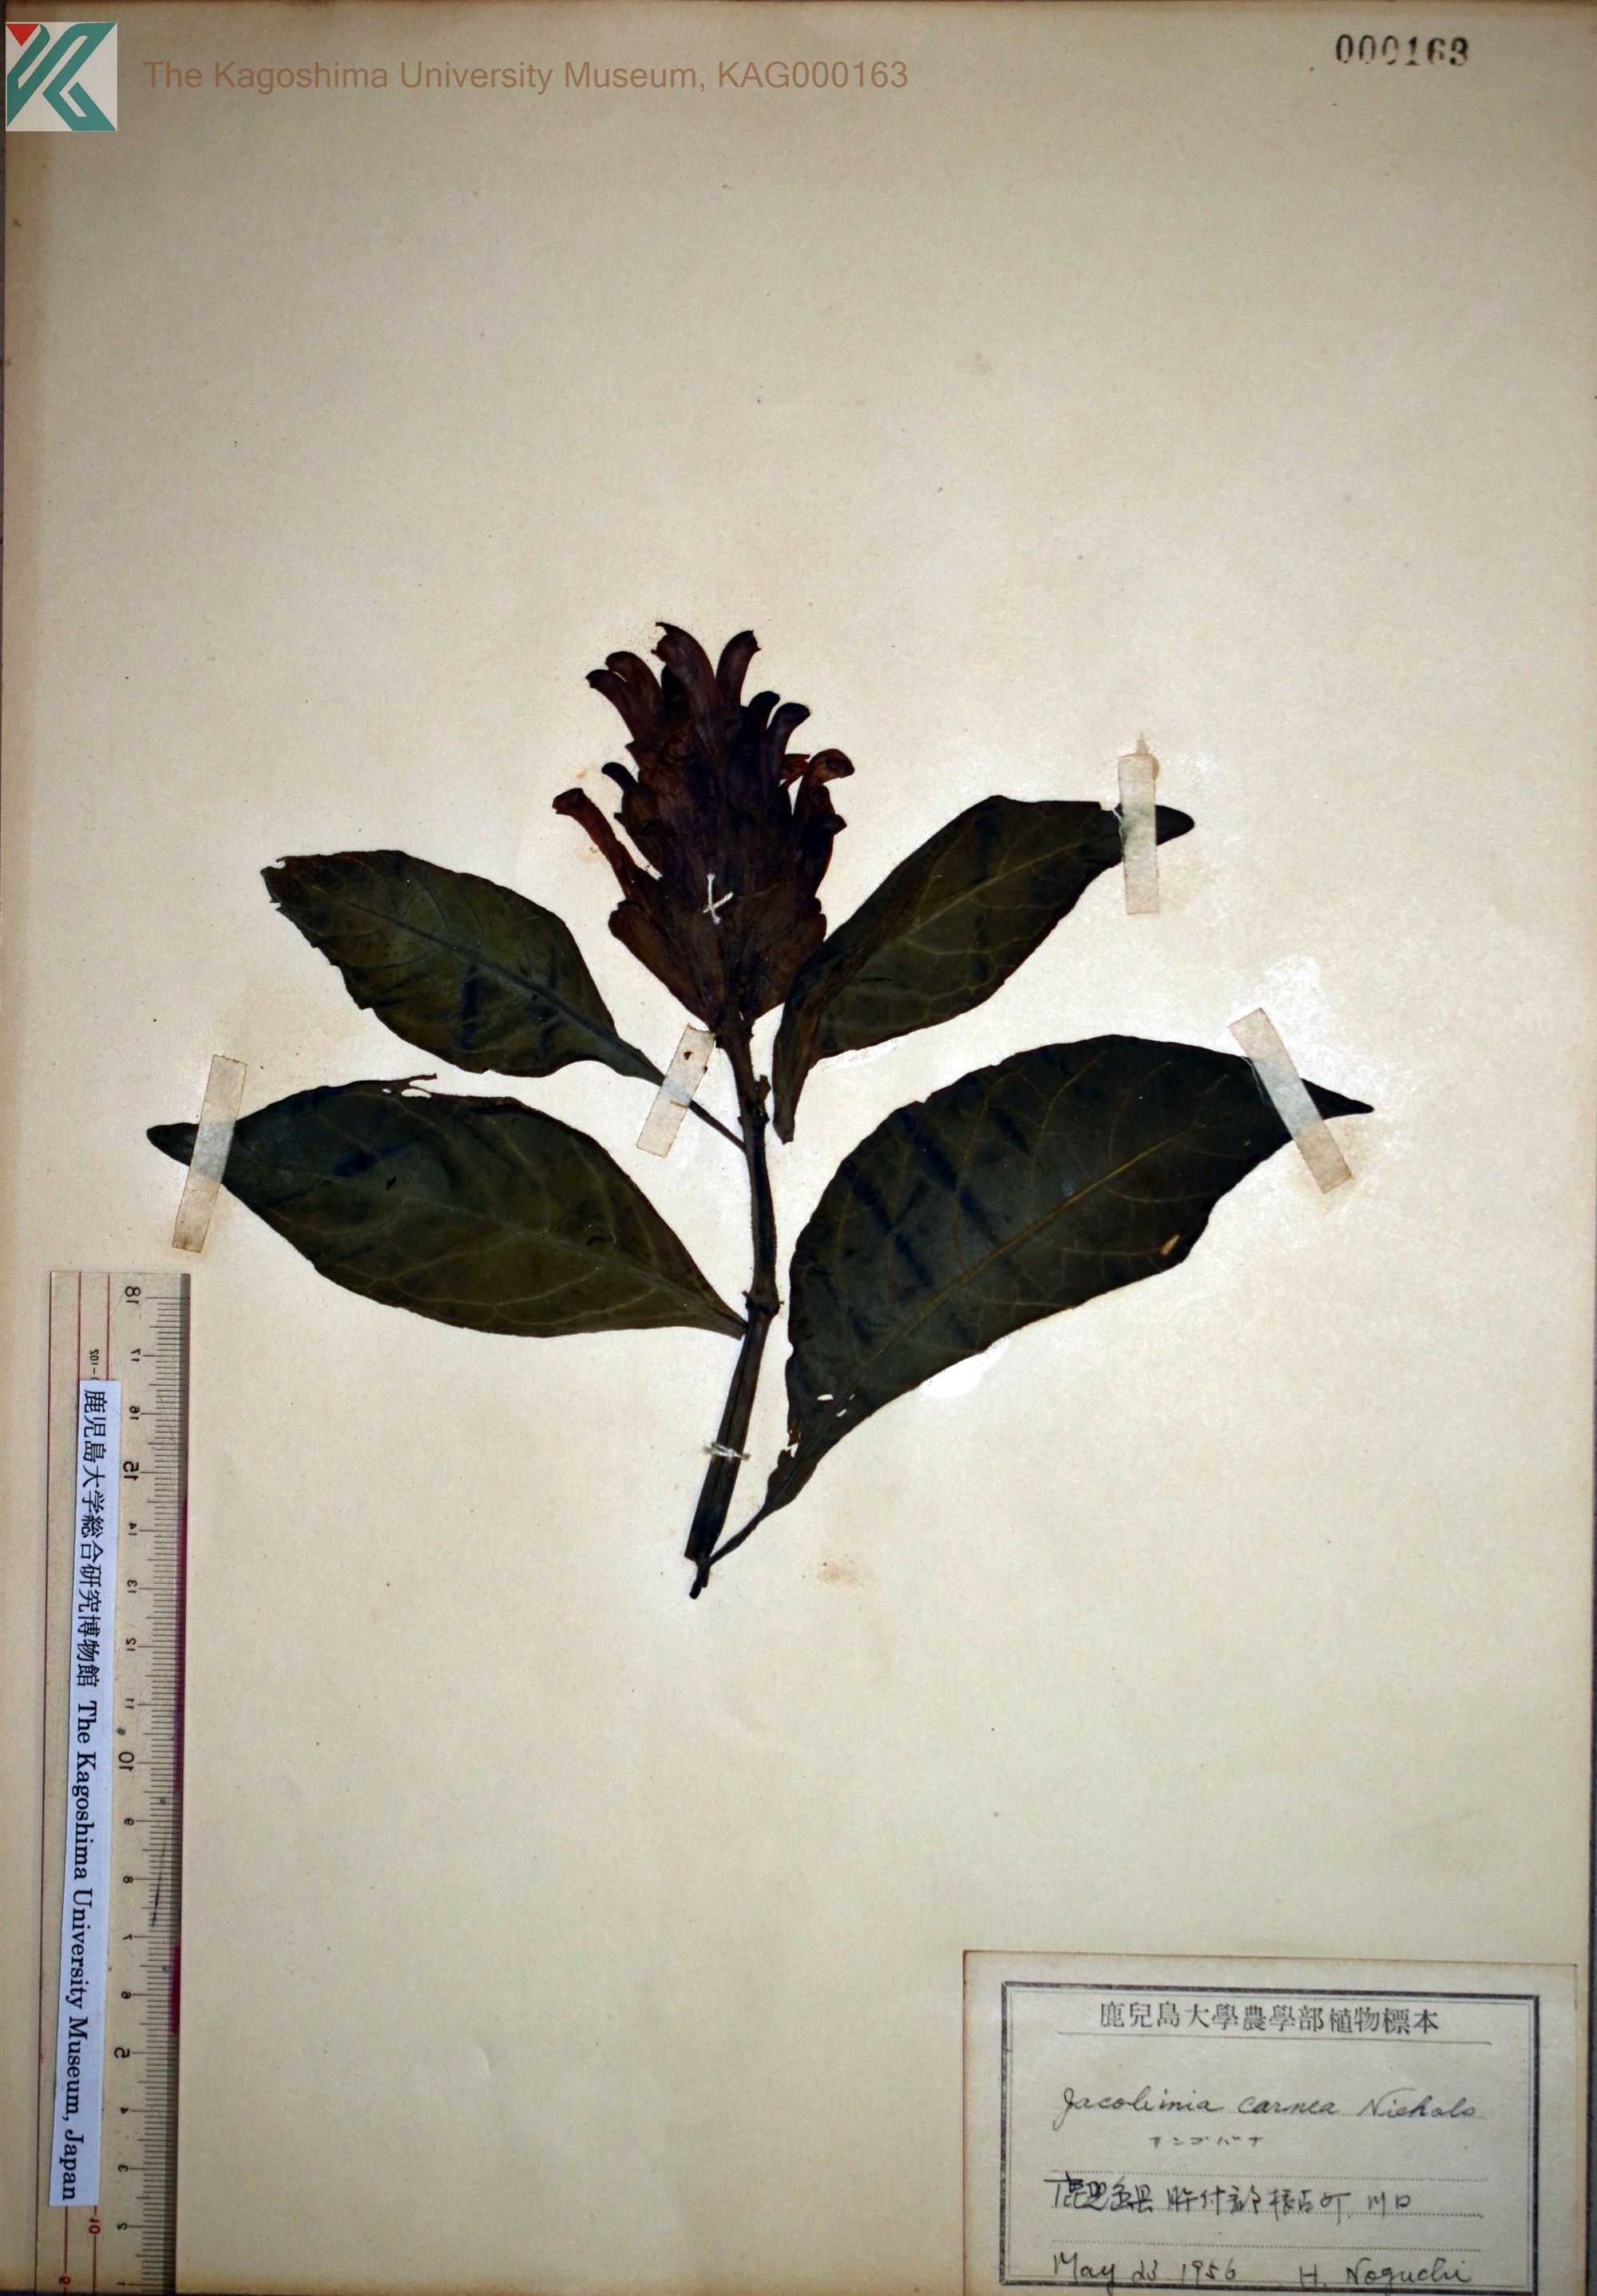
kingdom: Plantae
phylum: Tracheophyta
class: Magnoliopsida
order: Lamiales
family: Acanthaceae
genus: Justicia
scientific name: Justicia carnea
